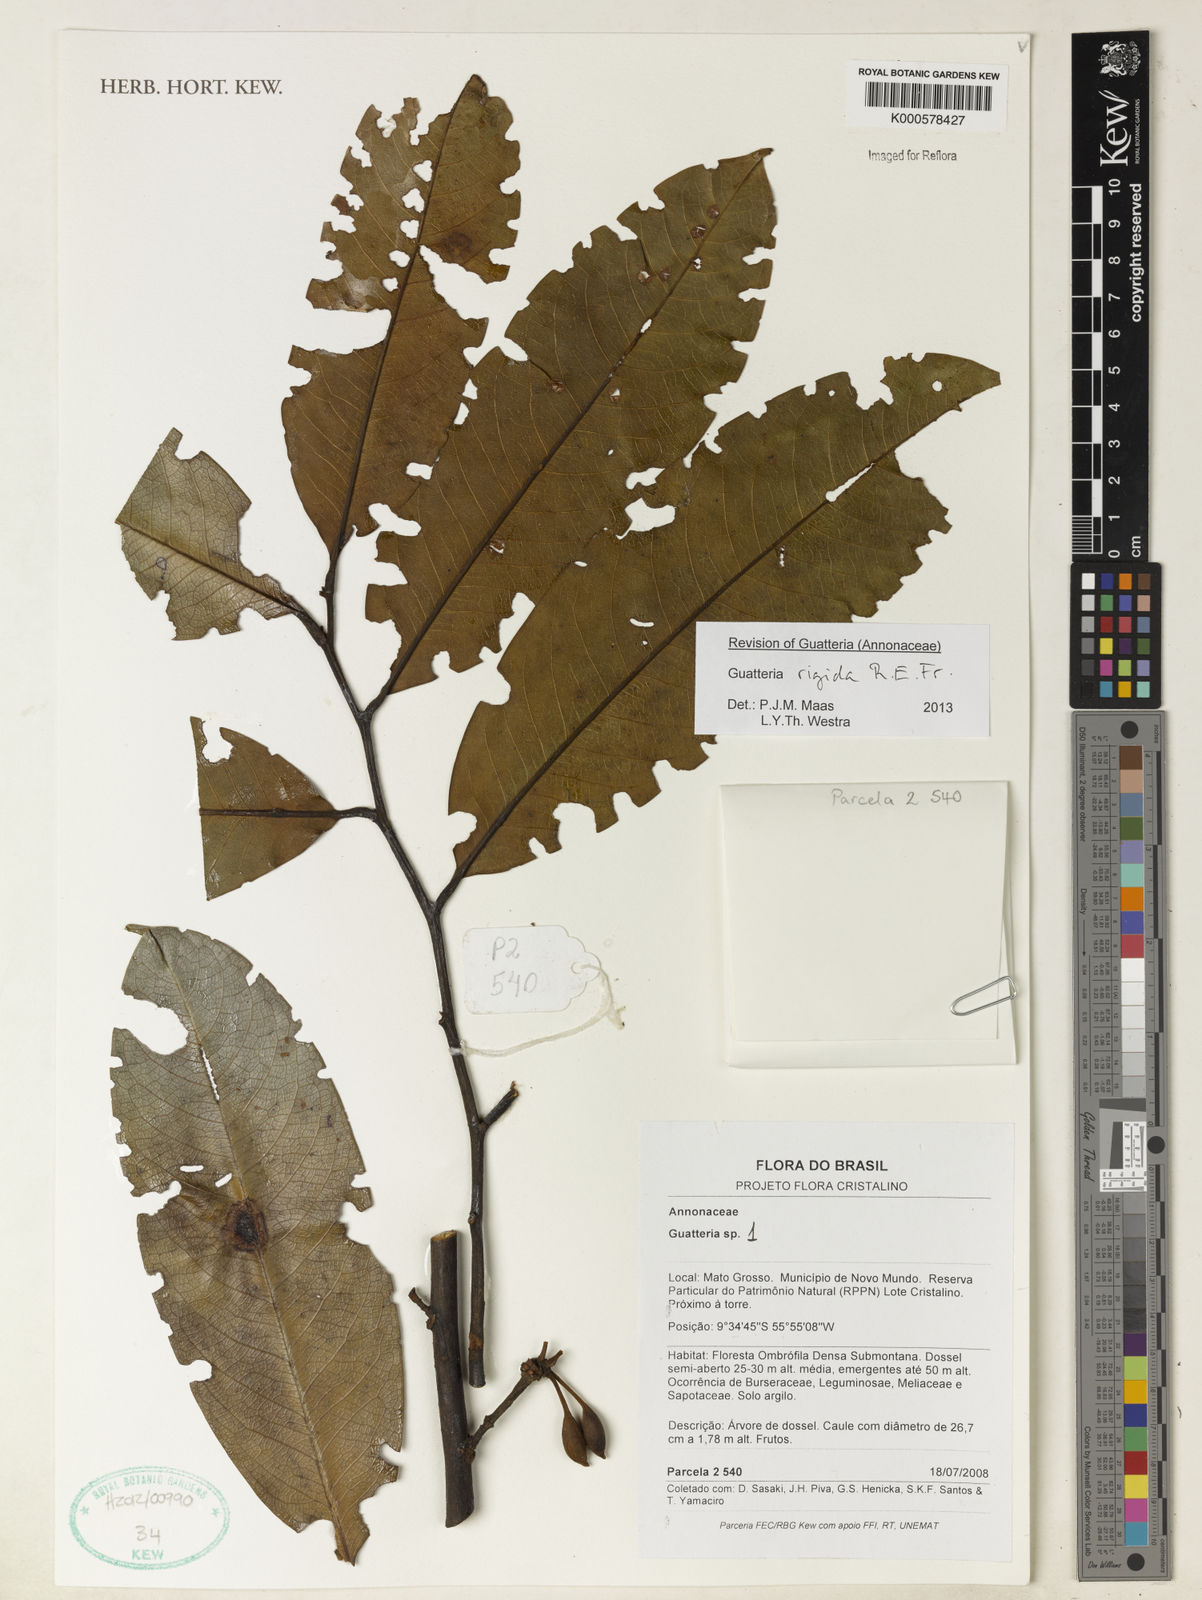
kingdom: Plantae
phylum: Tracheophyta
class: Magnoliopsida
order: Magnoliales
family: Annonaceae
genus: Guatteria
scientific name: Guatteria
